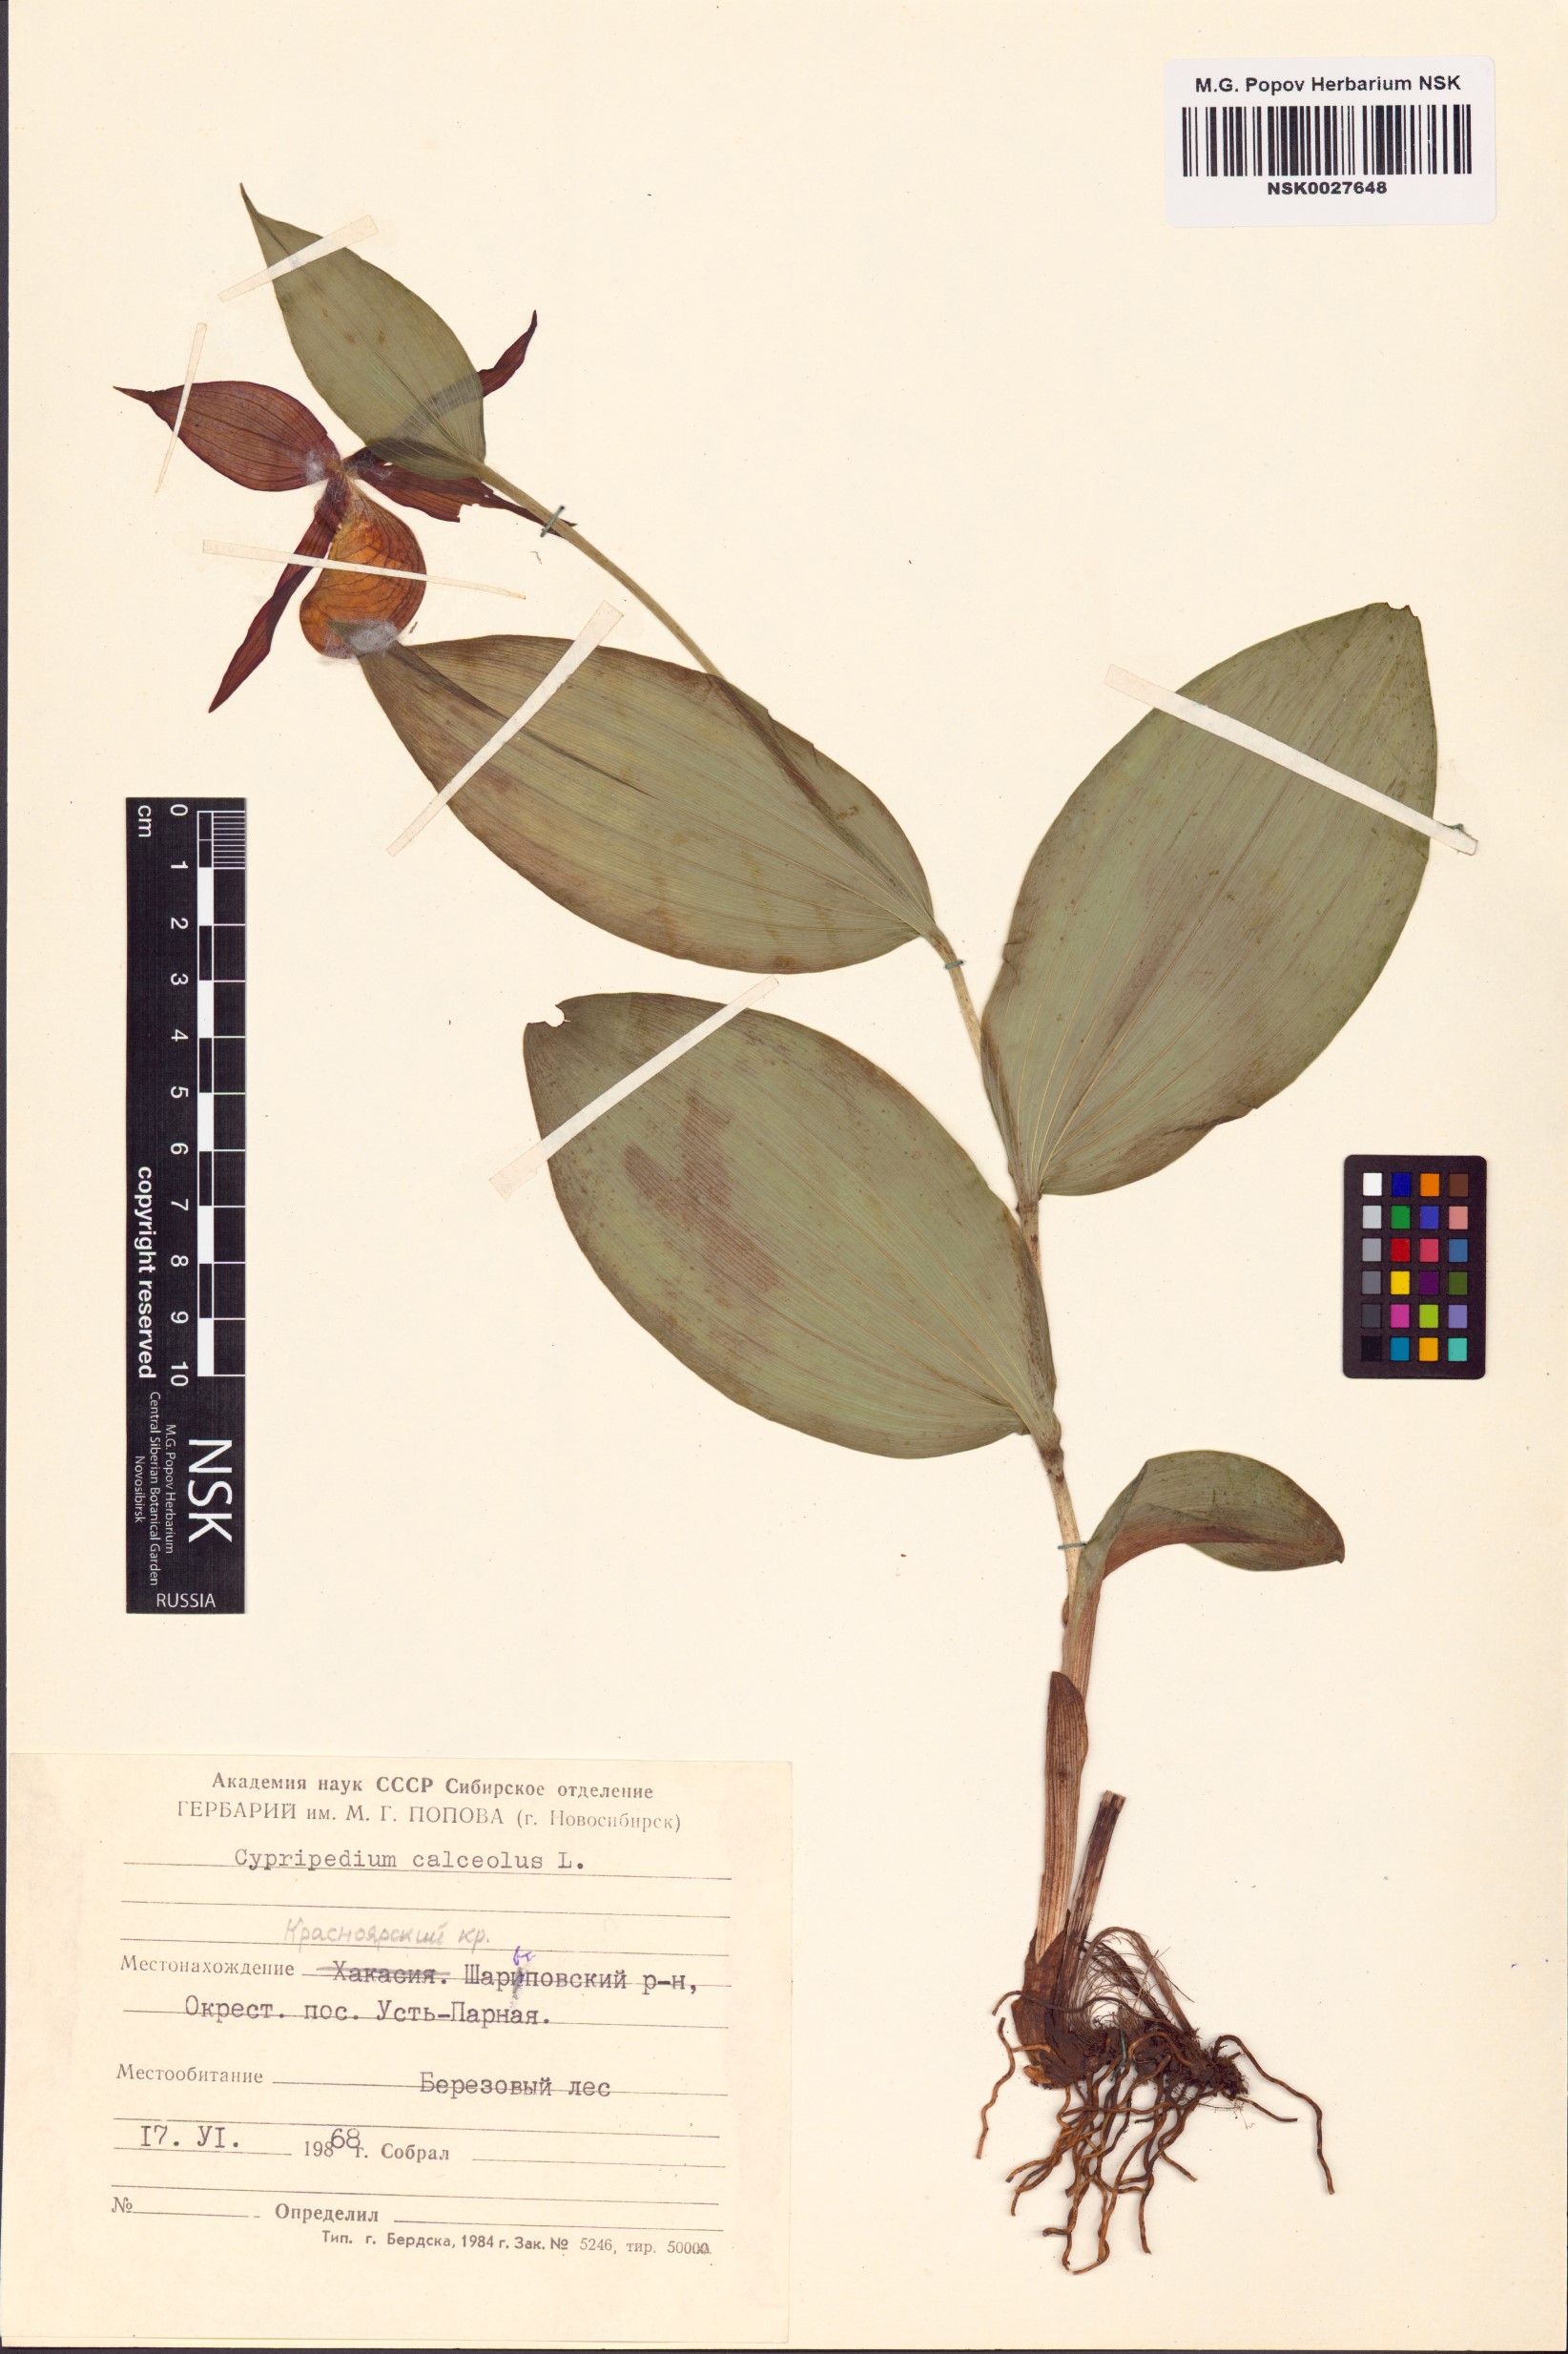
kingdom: Plantae
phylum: Tracheophyta
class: Liliopsida
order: Asparagales
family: Orchidaceae
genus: Cypripedium
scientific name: Cypripedium calceolus
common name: Lady's-slipper
